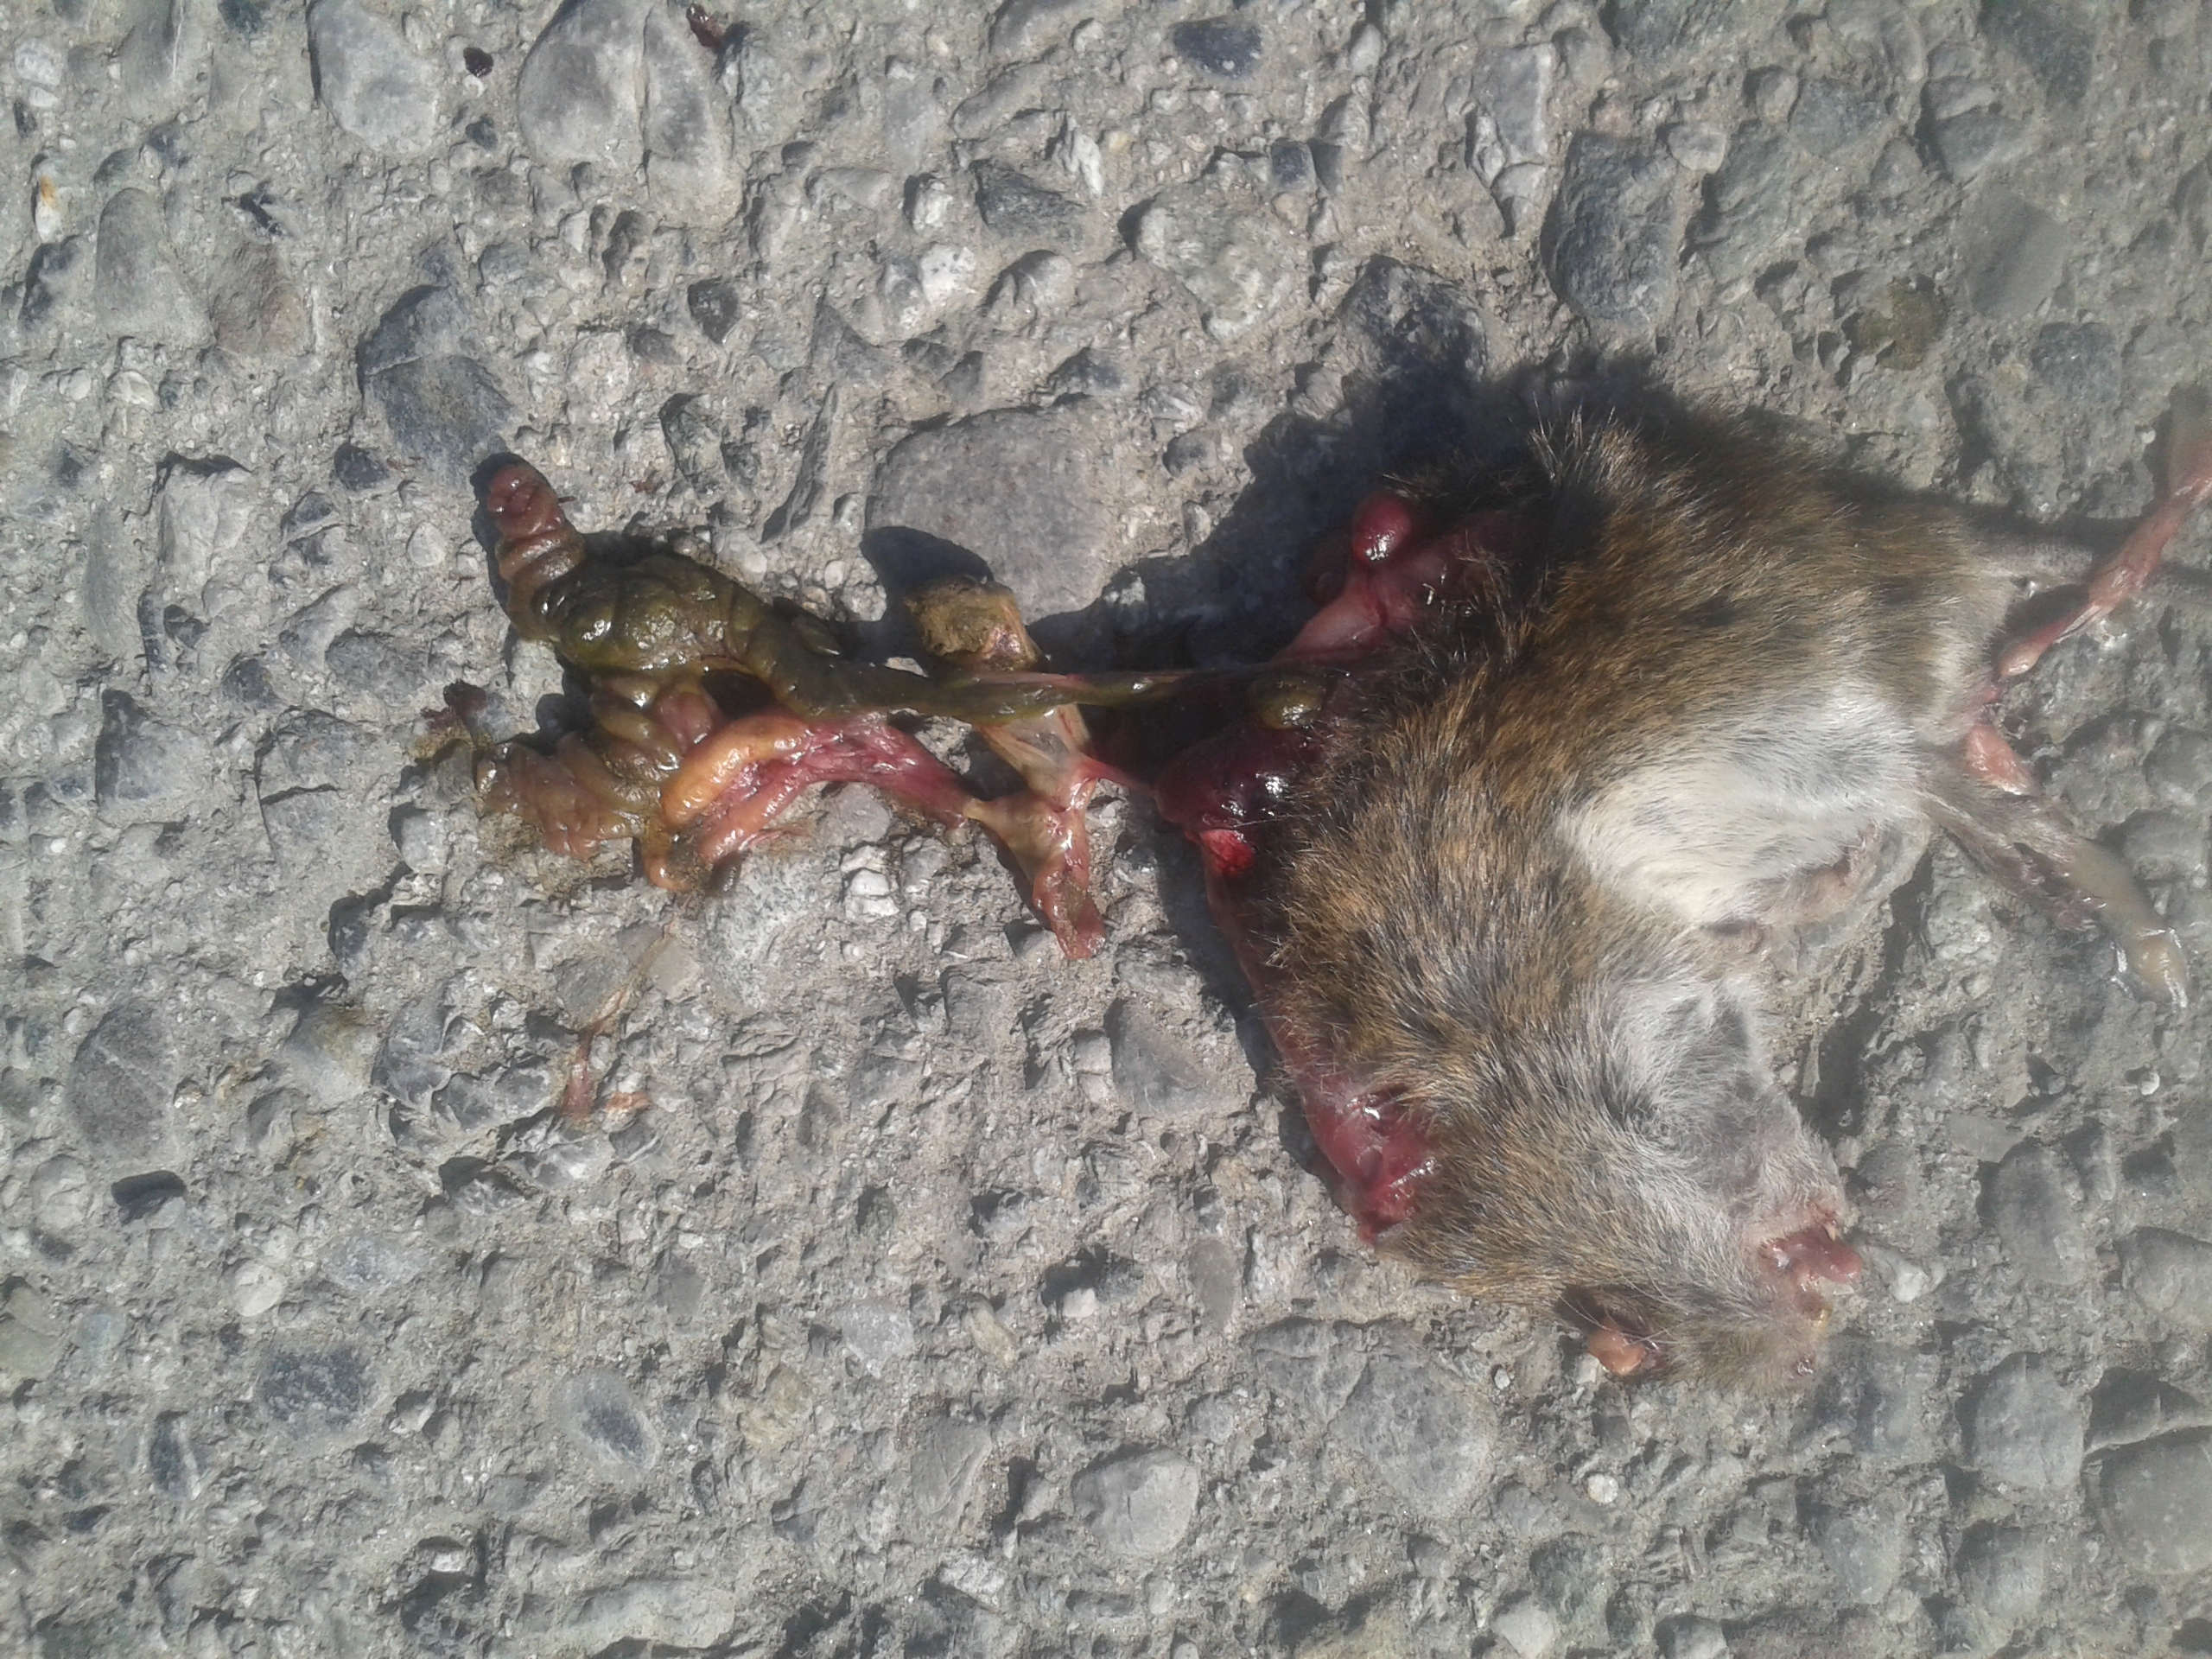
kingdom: Animalia
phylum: Chordata
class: Mammalia
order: Rodentia
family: Cricetidae
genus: Myodes
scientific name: Myodes glareolus
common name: Bank vole
